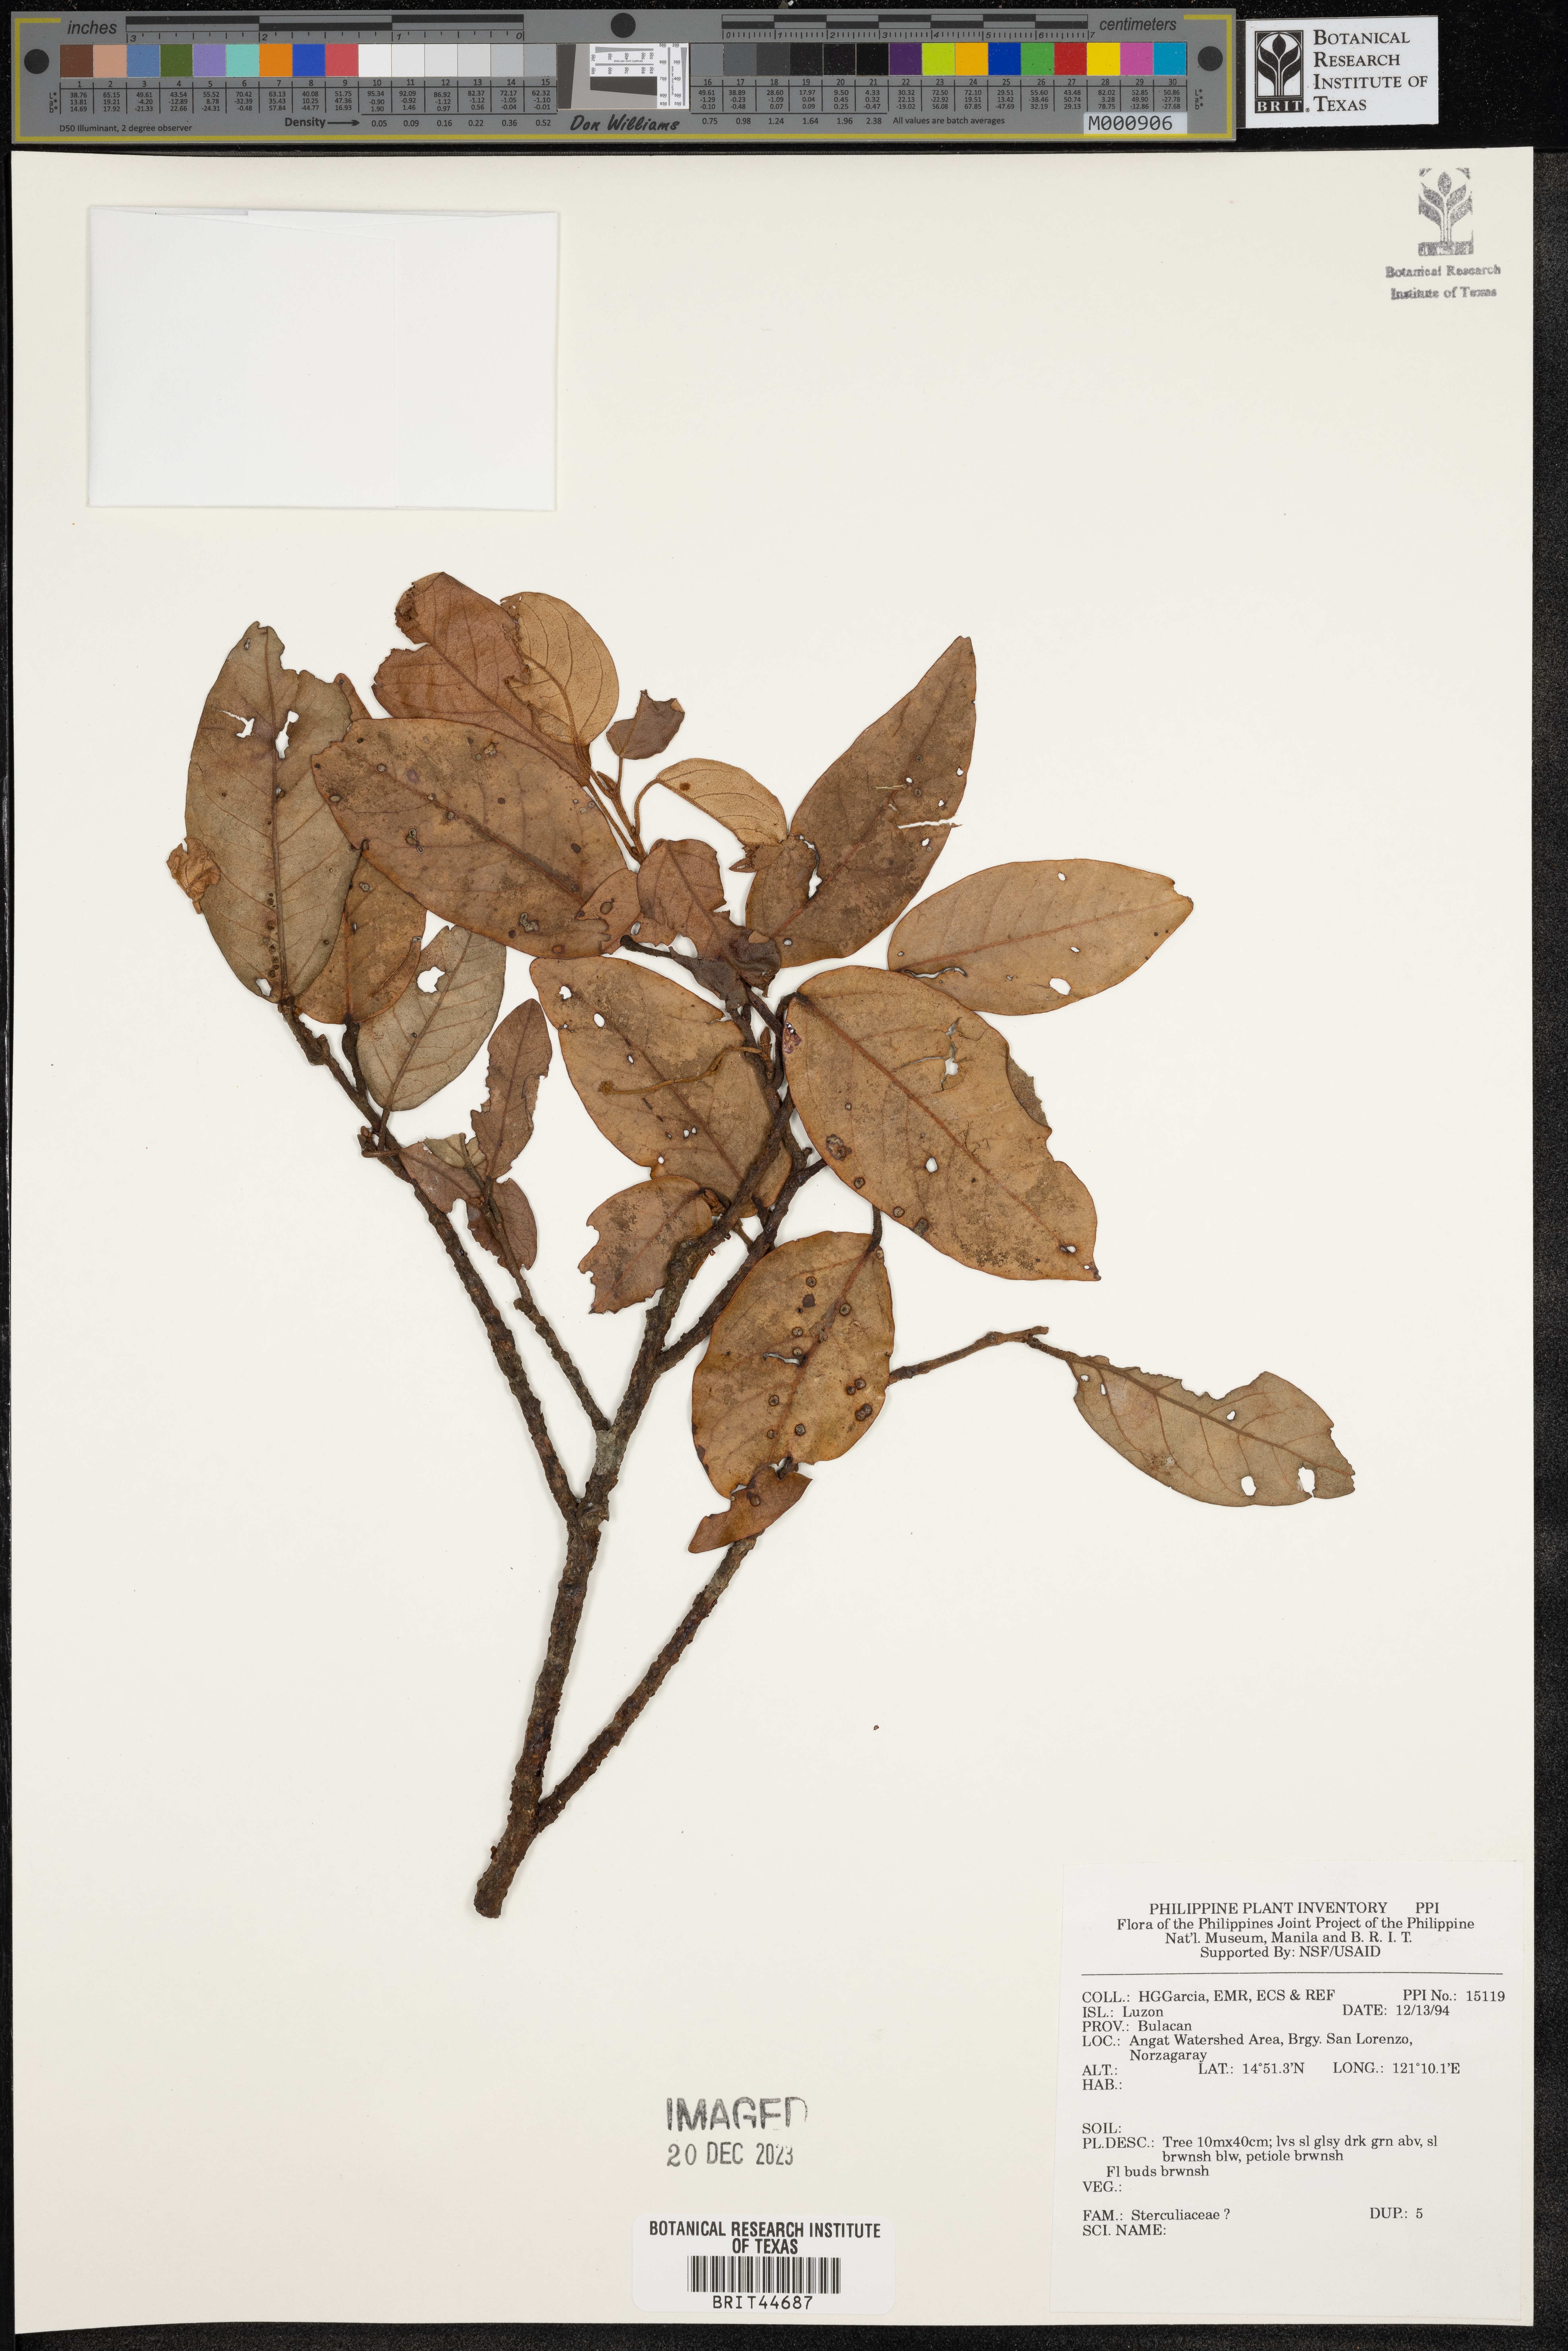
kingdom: Plantae
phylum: Tracheophyta
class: Magnoliopsida
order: Malvales
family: Sterculiaceae
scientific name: Sterculiaceae
